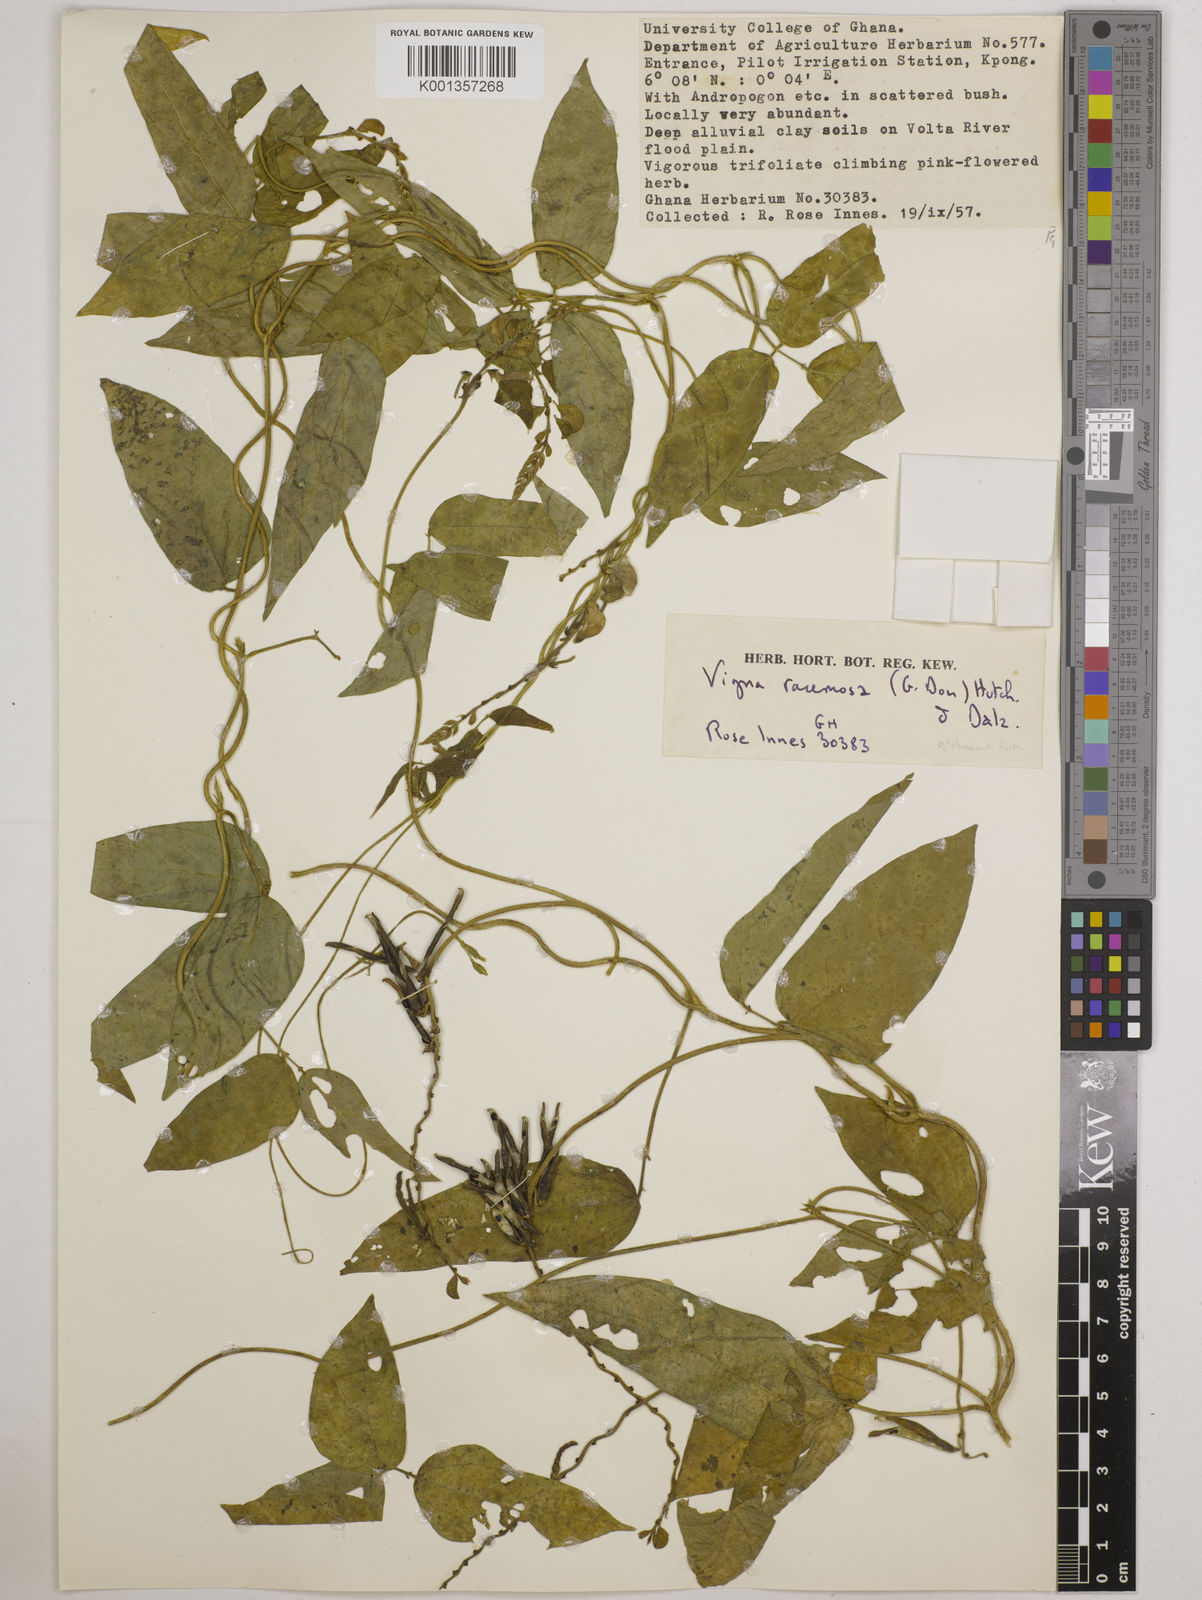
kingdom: Plantae
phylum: Tracheophyta
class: Magnoliopsida
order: Fabales
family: Fabaceae
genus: Vigna
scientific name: Vigna racemosa
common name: Beans not eaten
